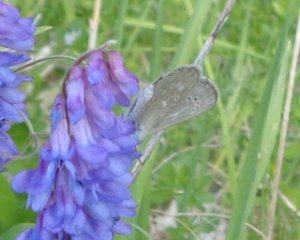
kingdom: Animalia
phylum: Arthropoda
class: Insecta
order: Lepidoptera
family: Lycaenidae
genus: Glaucopsyche
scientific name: Glaucopsyche lygdamus
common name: Silvery Blue
